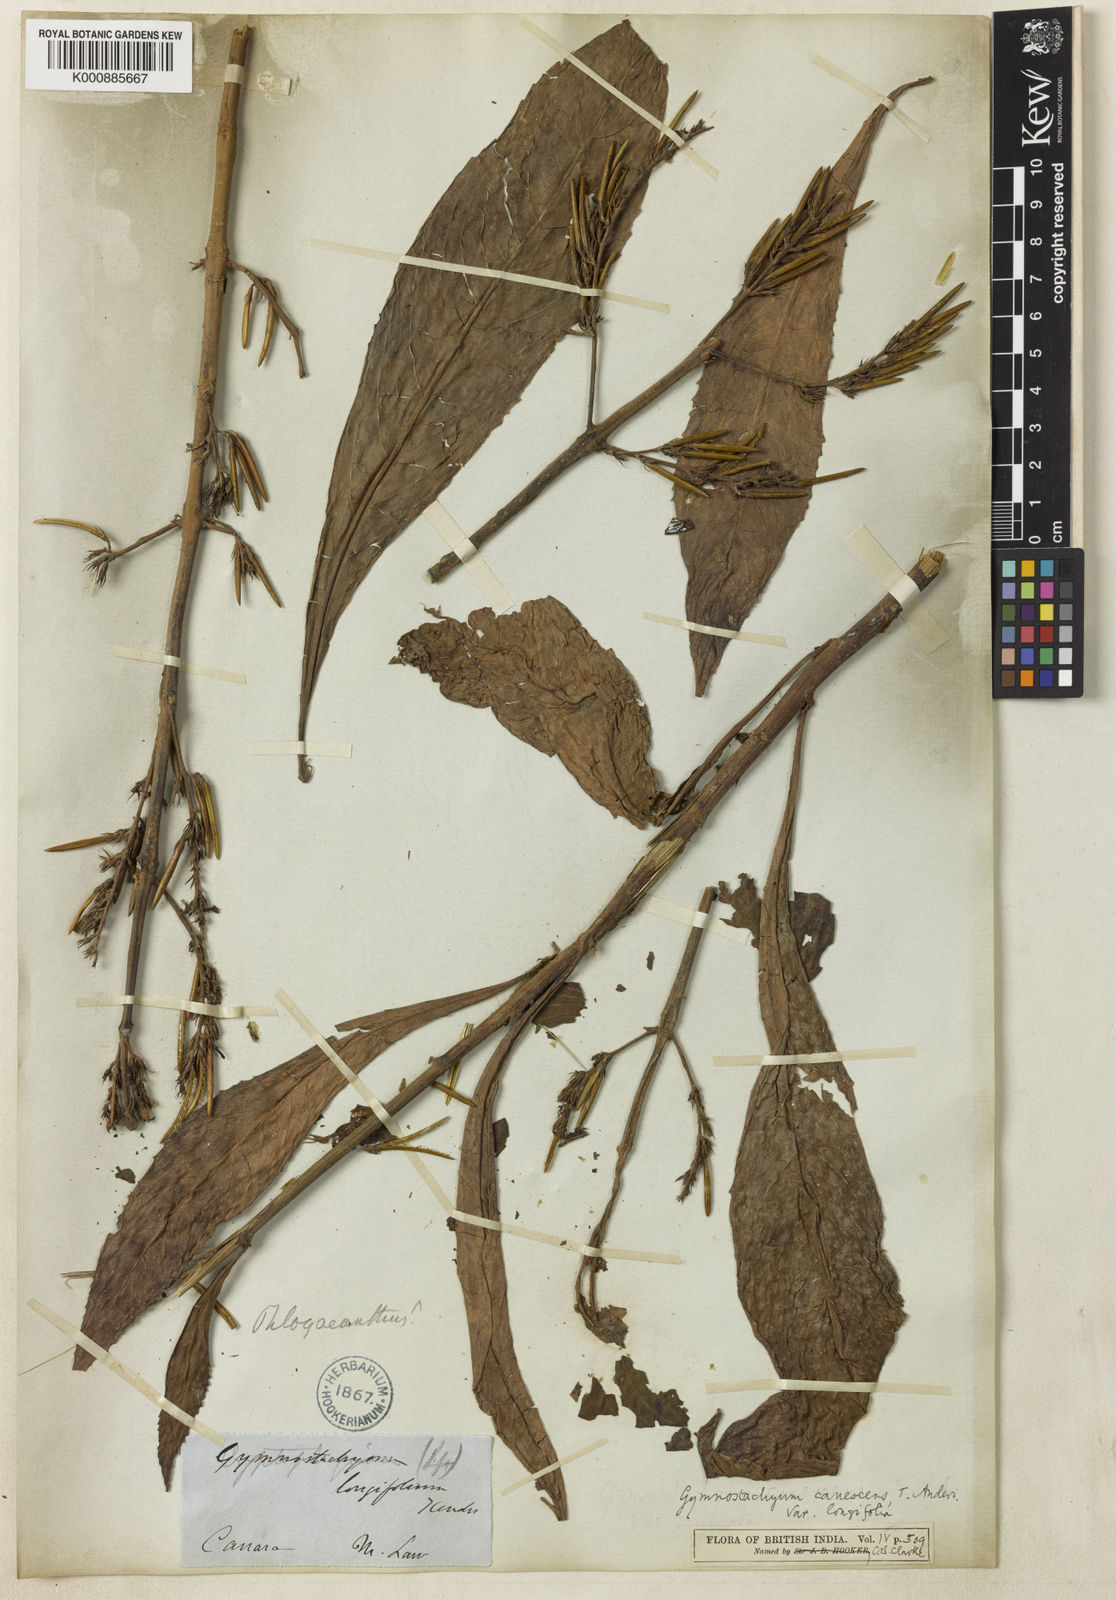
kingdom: Plantae
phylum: Tracheophyta
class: Magnoliopsida
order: Lamiales
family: Acanthaceae
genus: Gymnostachyum
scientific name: Gymnostachyum pubescens
